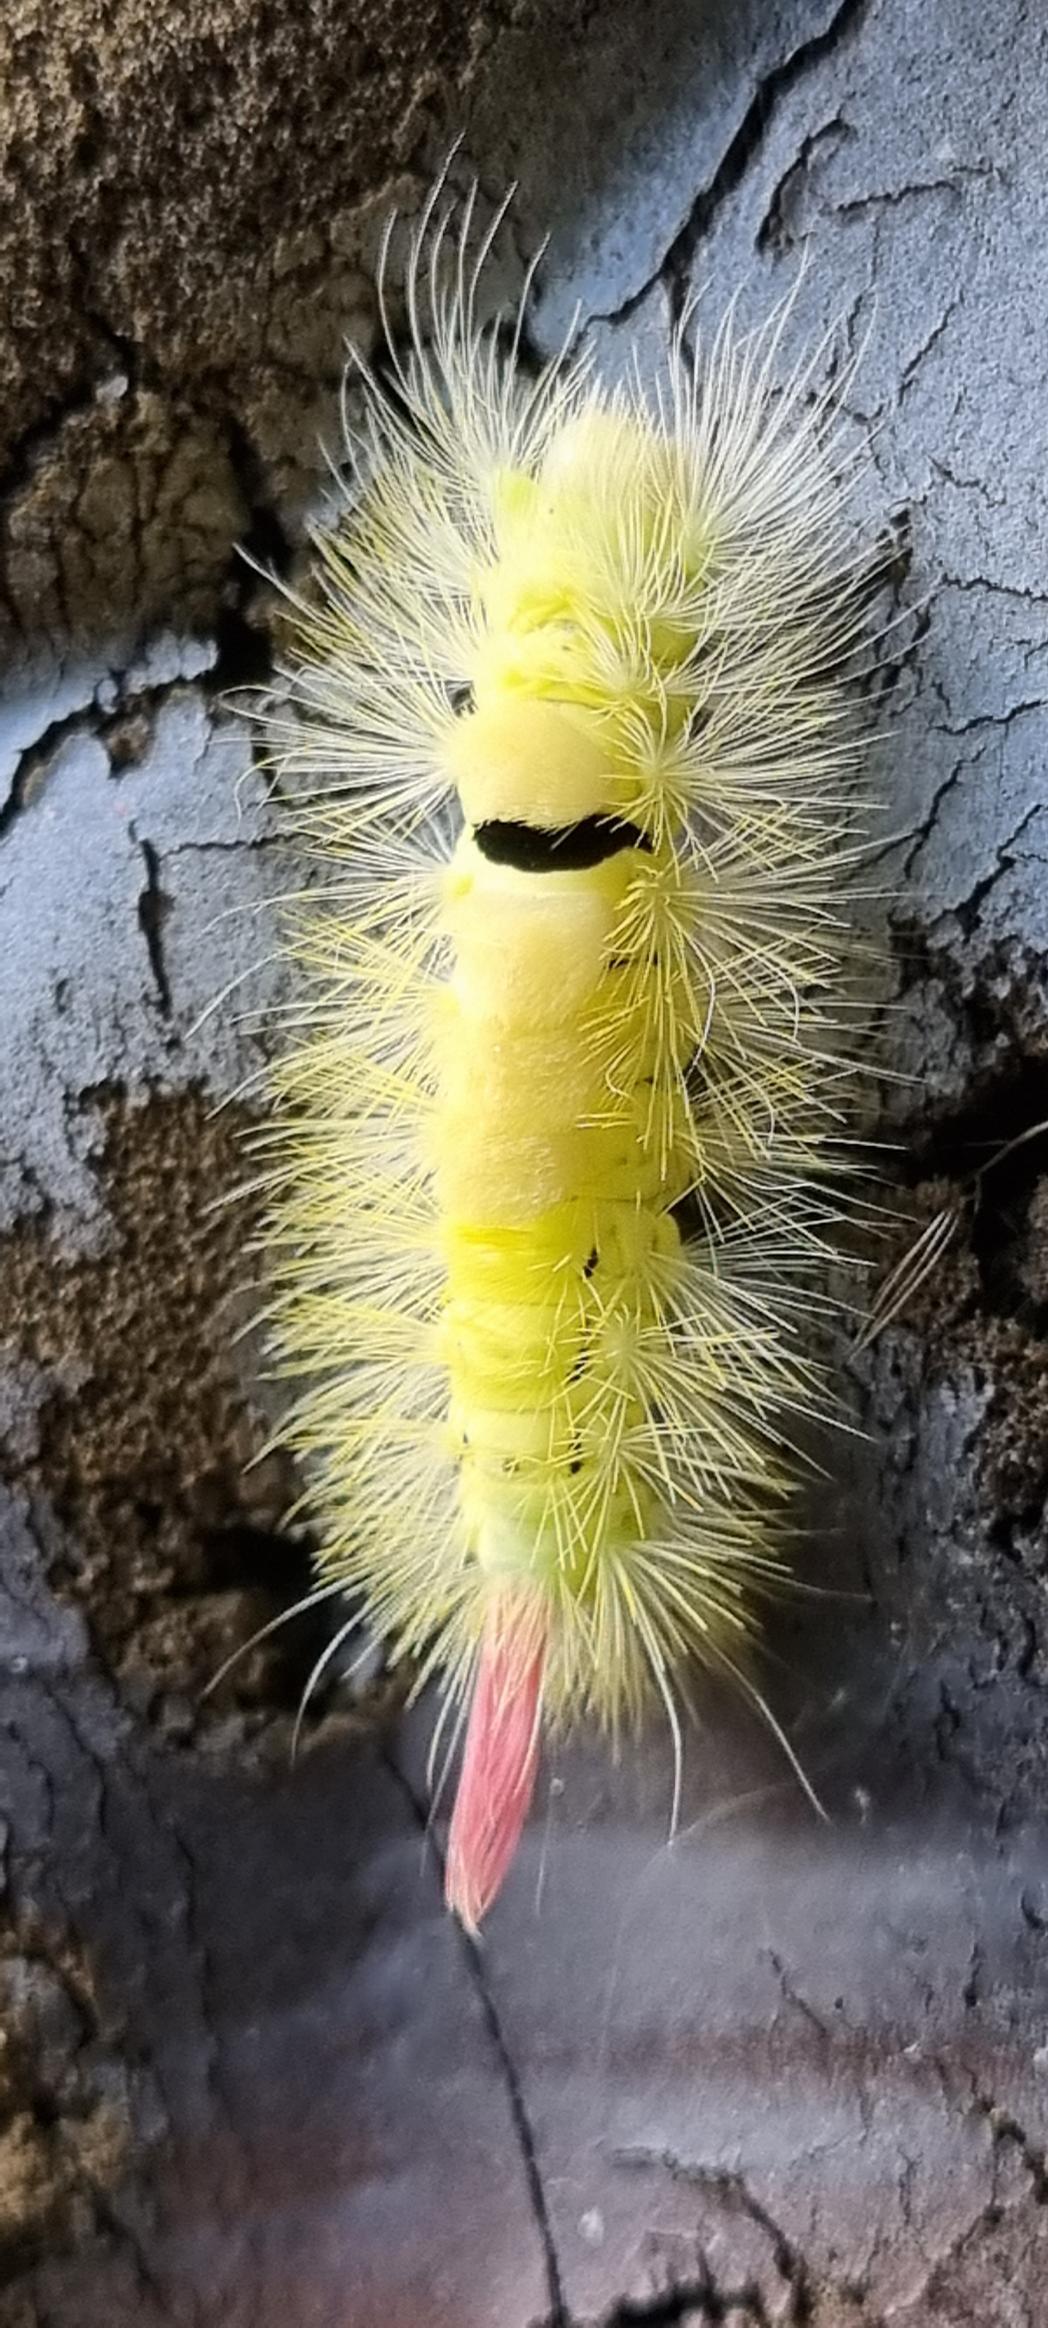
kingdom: Animalia
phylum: Arthropoda
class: Insecta
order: Lepidoptera
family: Erebidae
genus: Calliteara
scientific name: Calliteara pudibunda
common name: Bøgenonne
